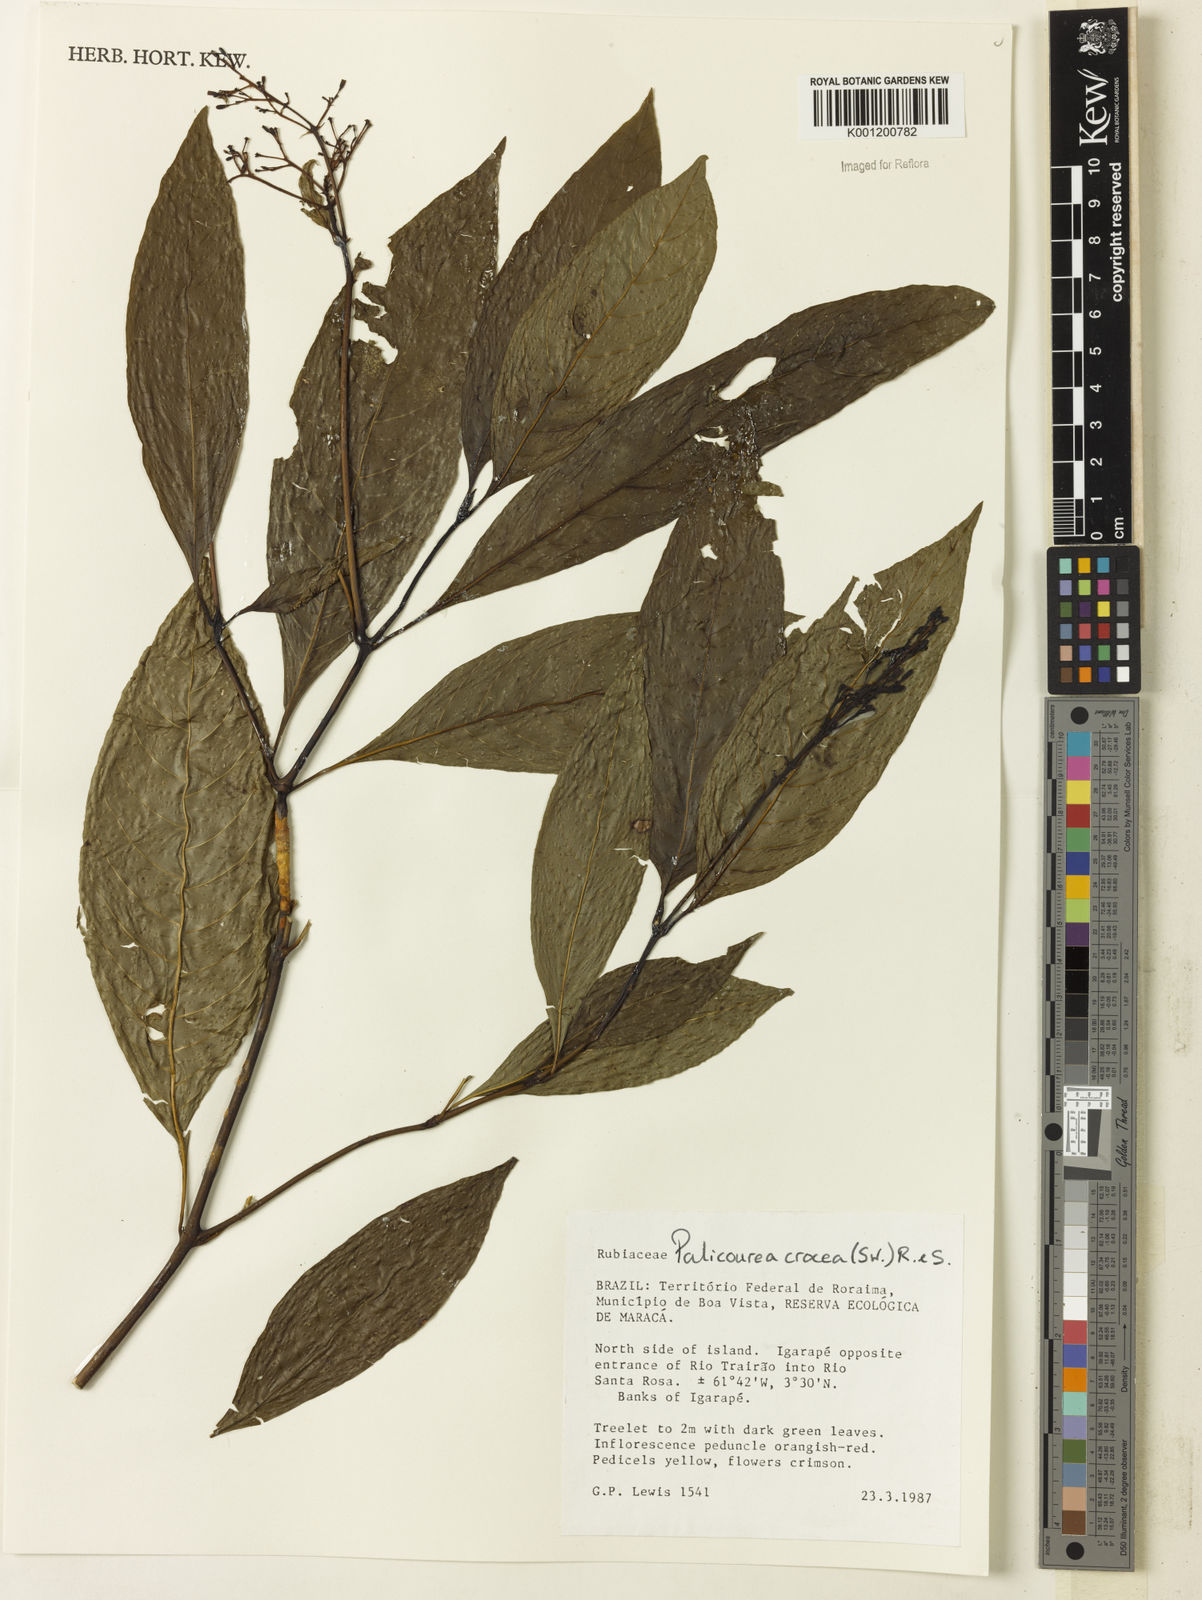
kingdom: Plantae
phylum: Tracheophyta
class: Magnoliopsida
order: Gentianales
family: Rubiaceae
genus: Palicourea
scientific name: Palicourea crocea
